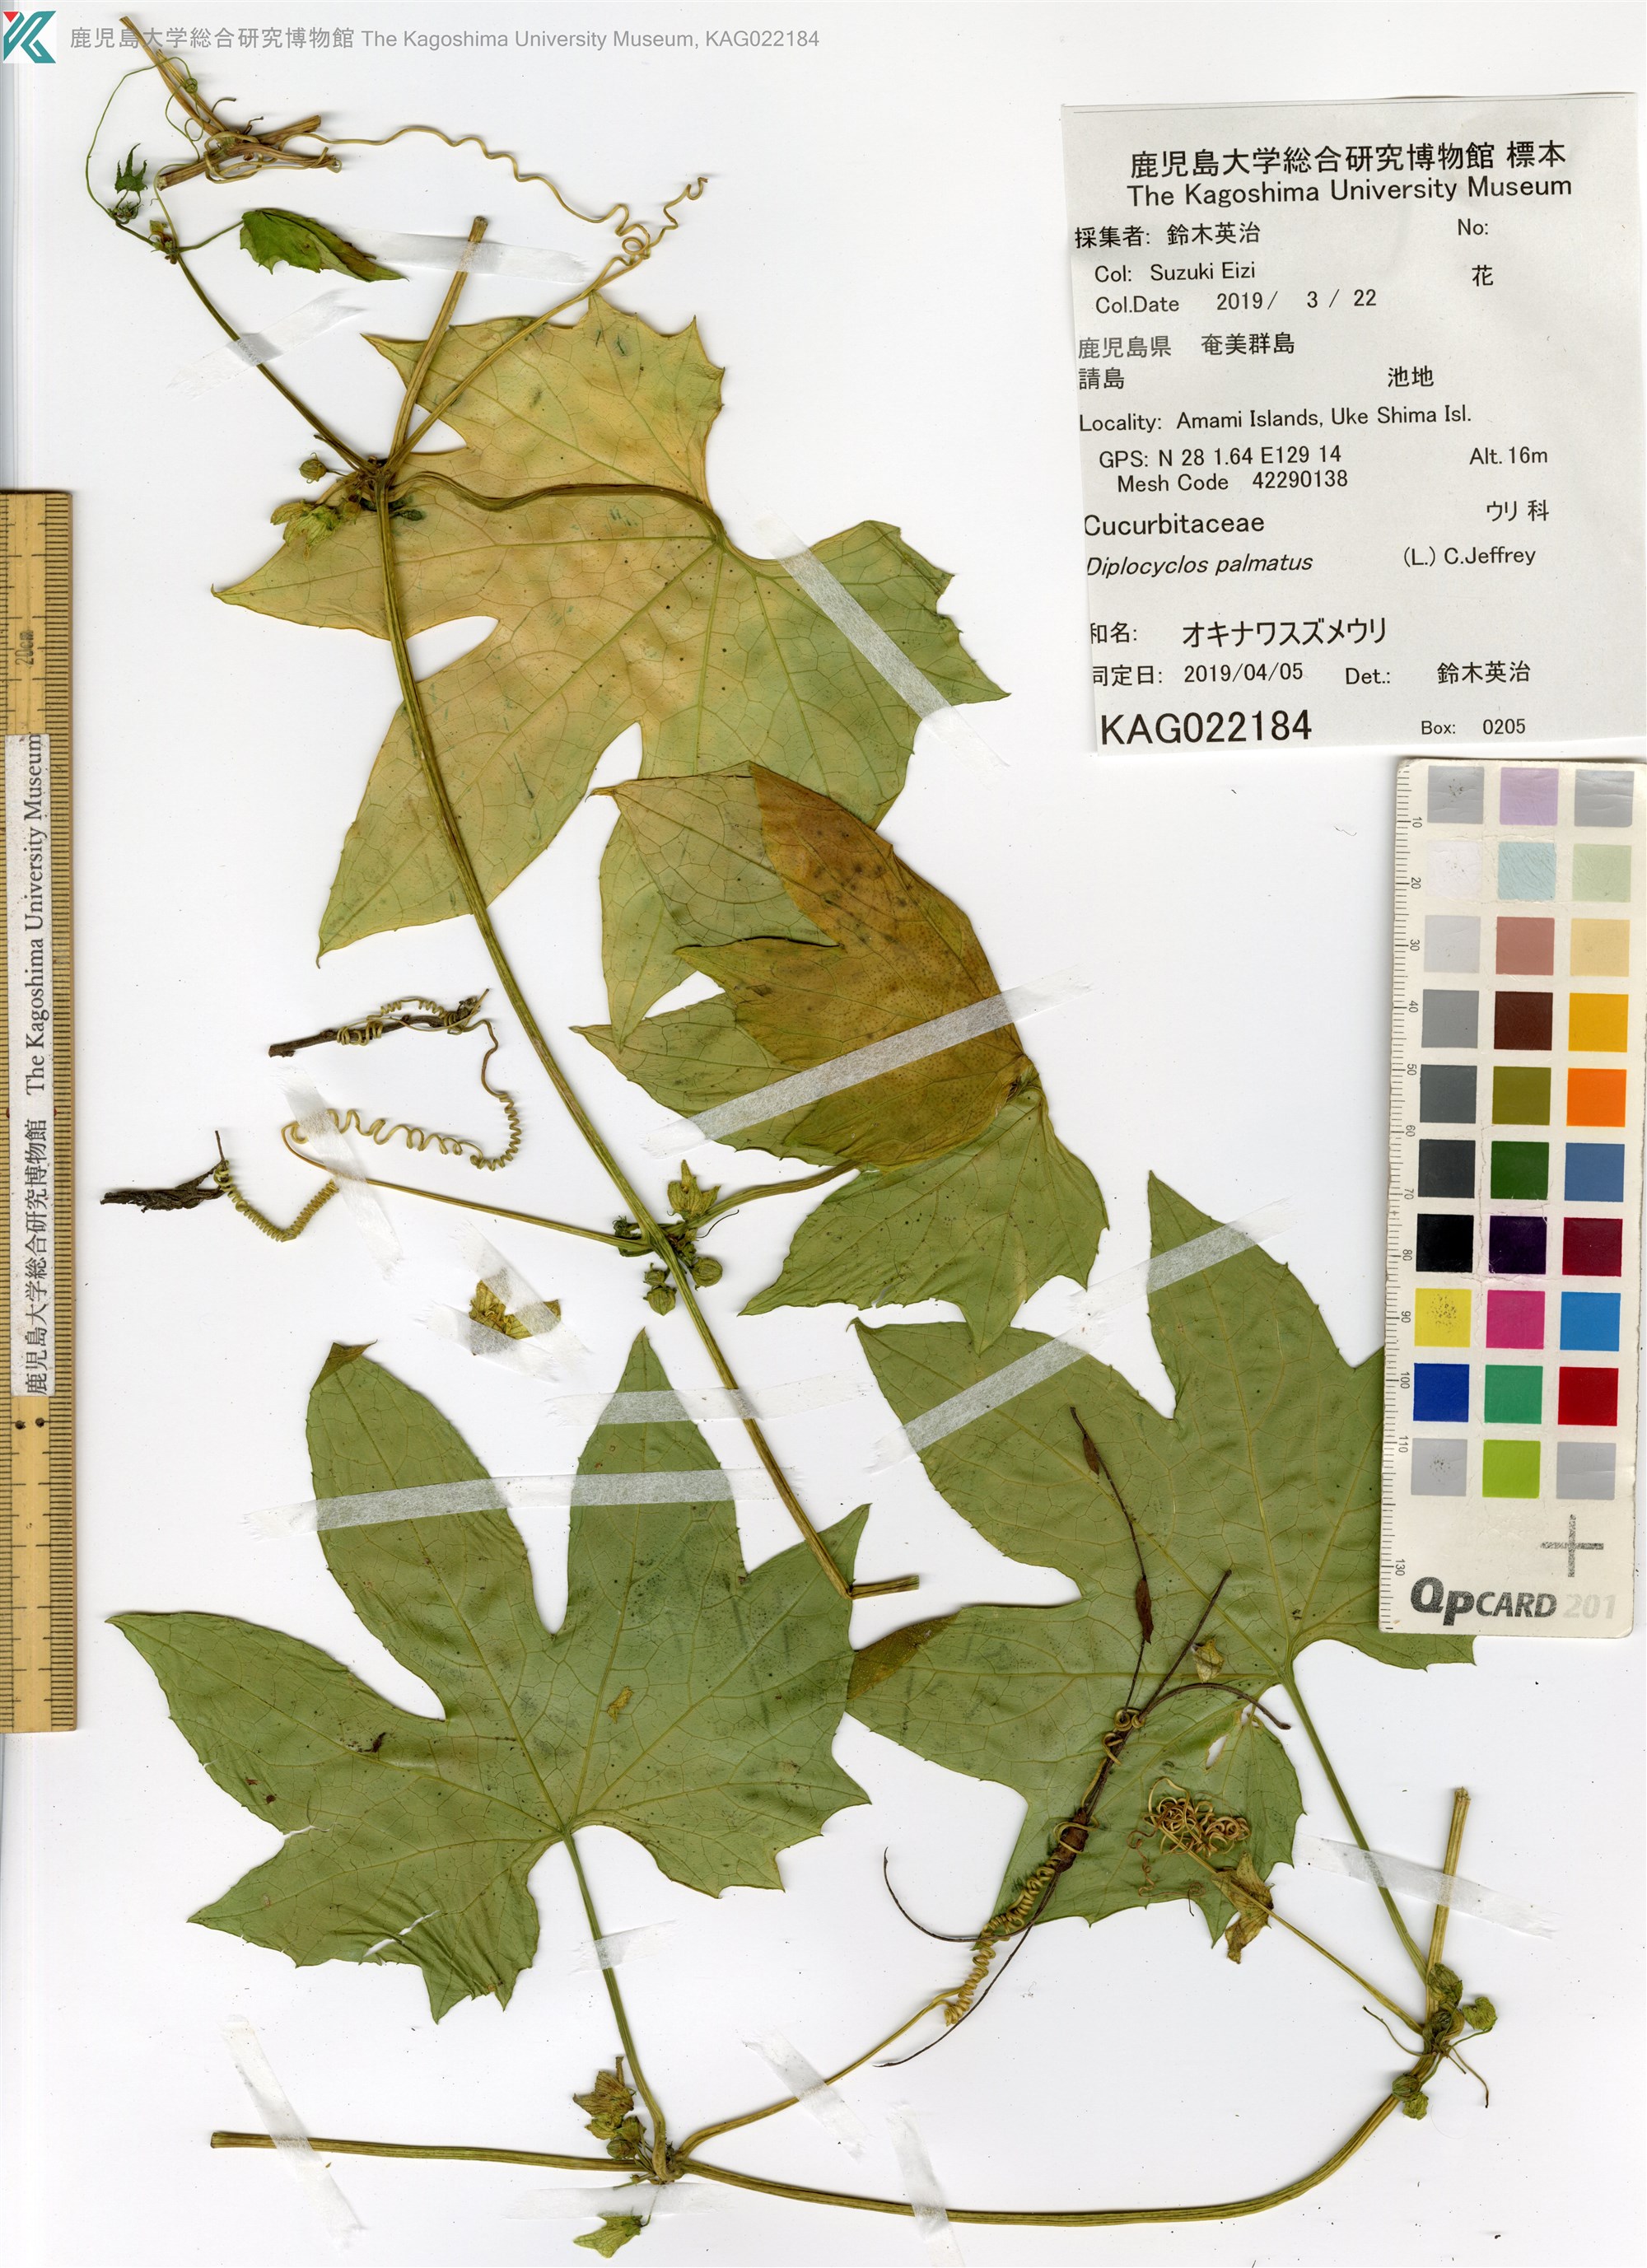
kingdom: Plantae
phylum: Tracheophyta
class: Magnoliopsida
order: Cucurbitales
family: Cucurbitaceae
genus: Diplocyclos
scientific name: Diplocyclos palmatus
